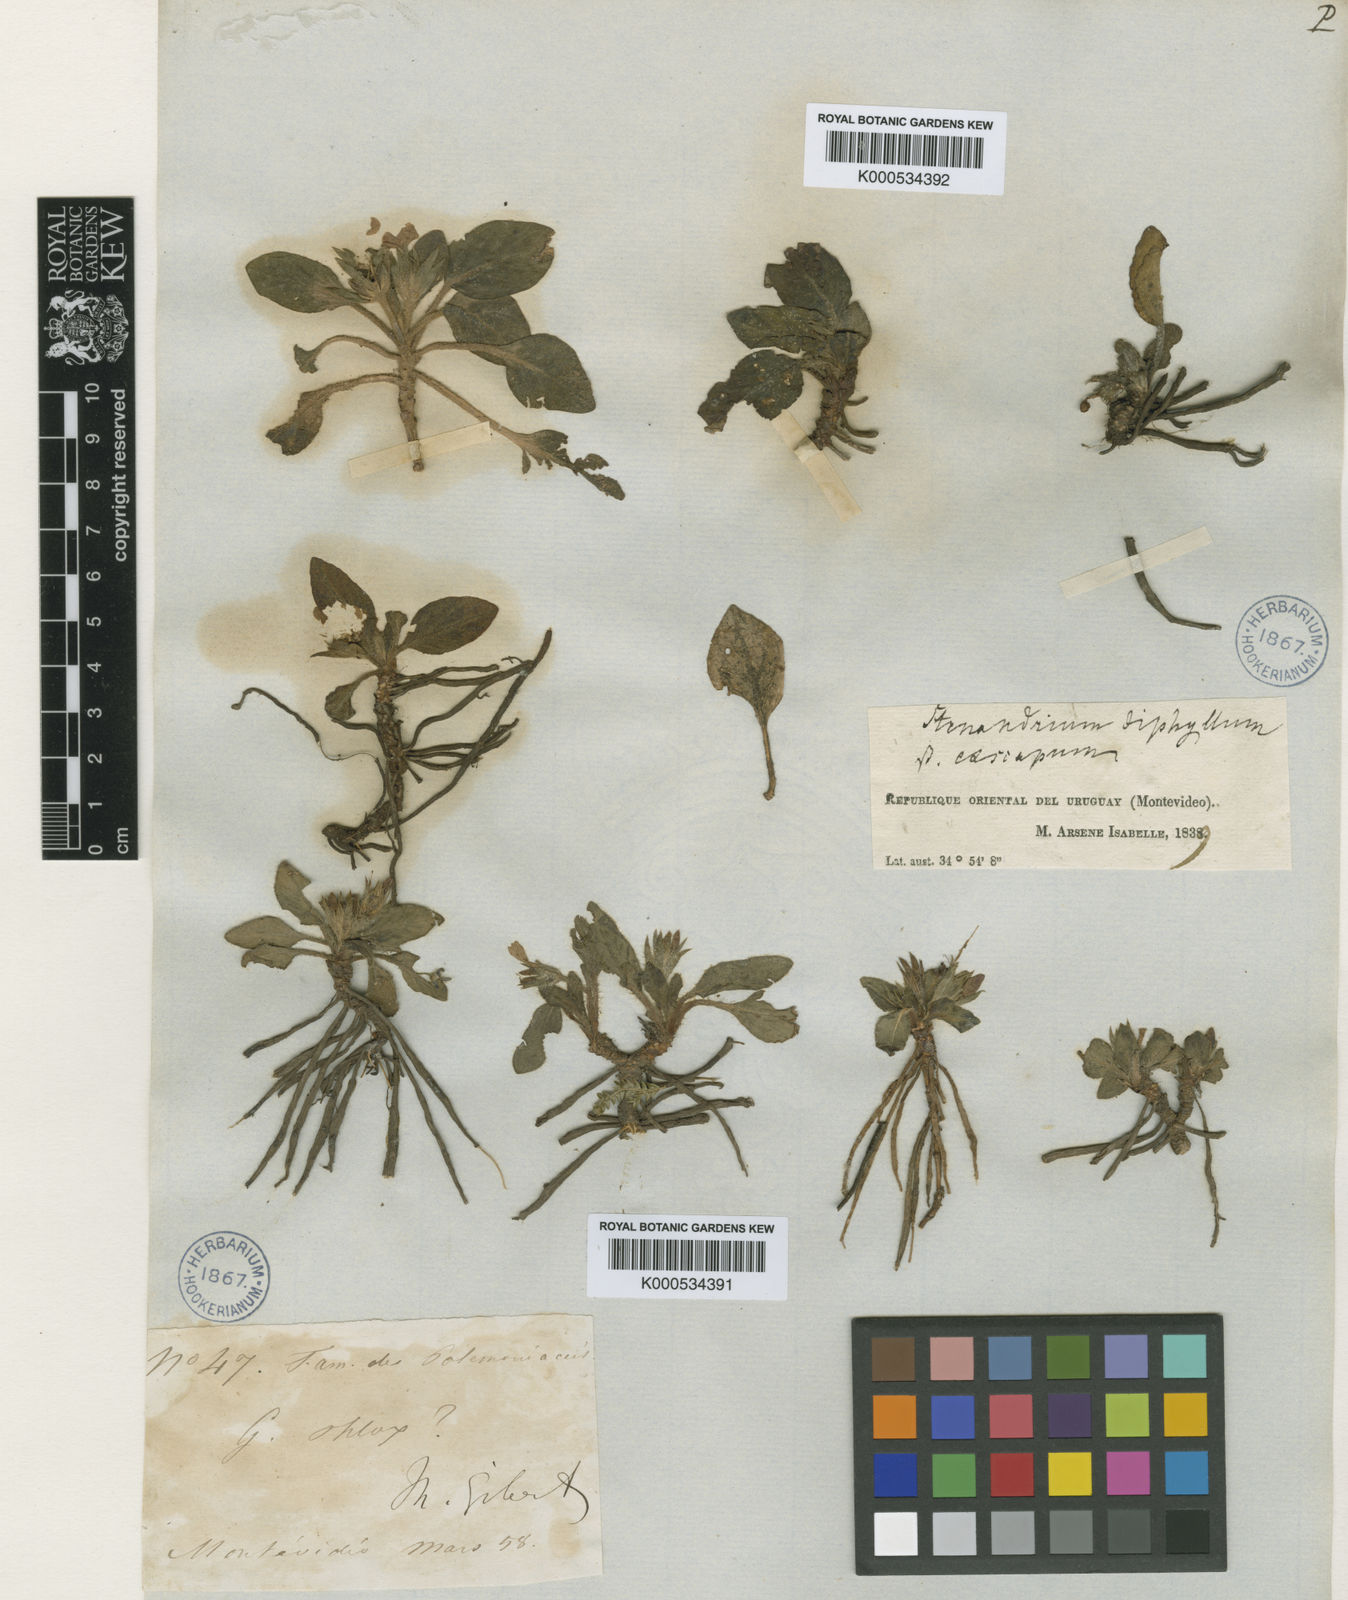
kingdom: Plantae
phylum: Tracheophyta
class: Magnoliopsida
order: Lamiales
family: Acanthaceae
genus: Stenandrium
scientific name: Stenandrium dulce
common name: Pinklet
